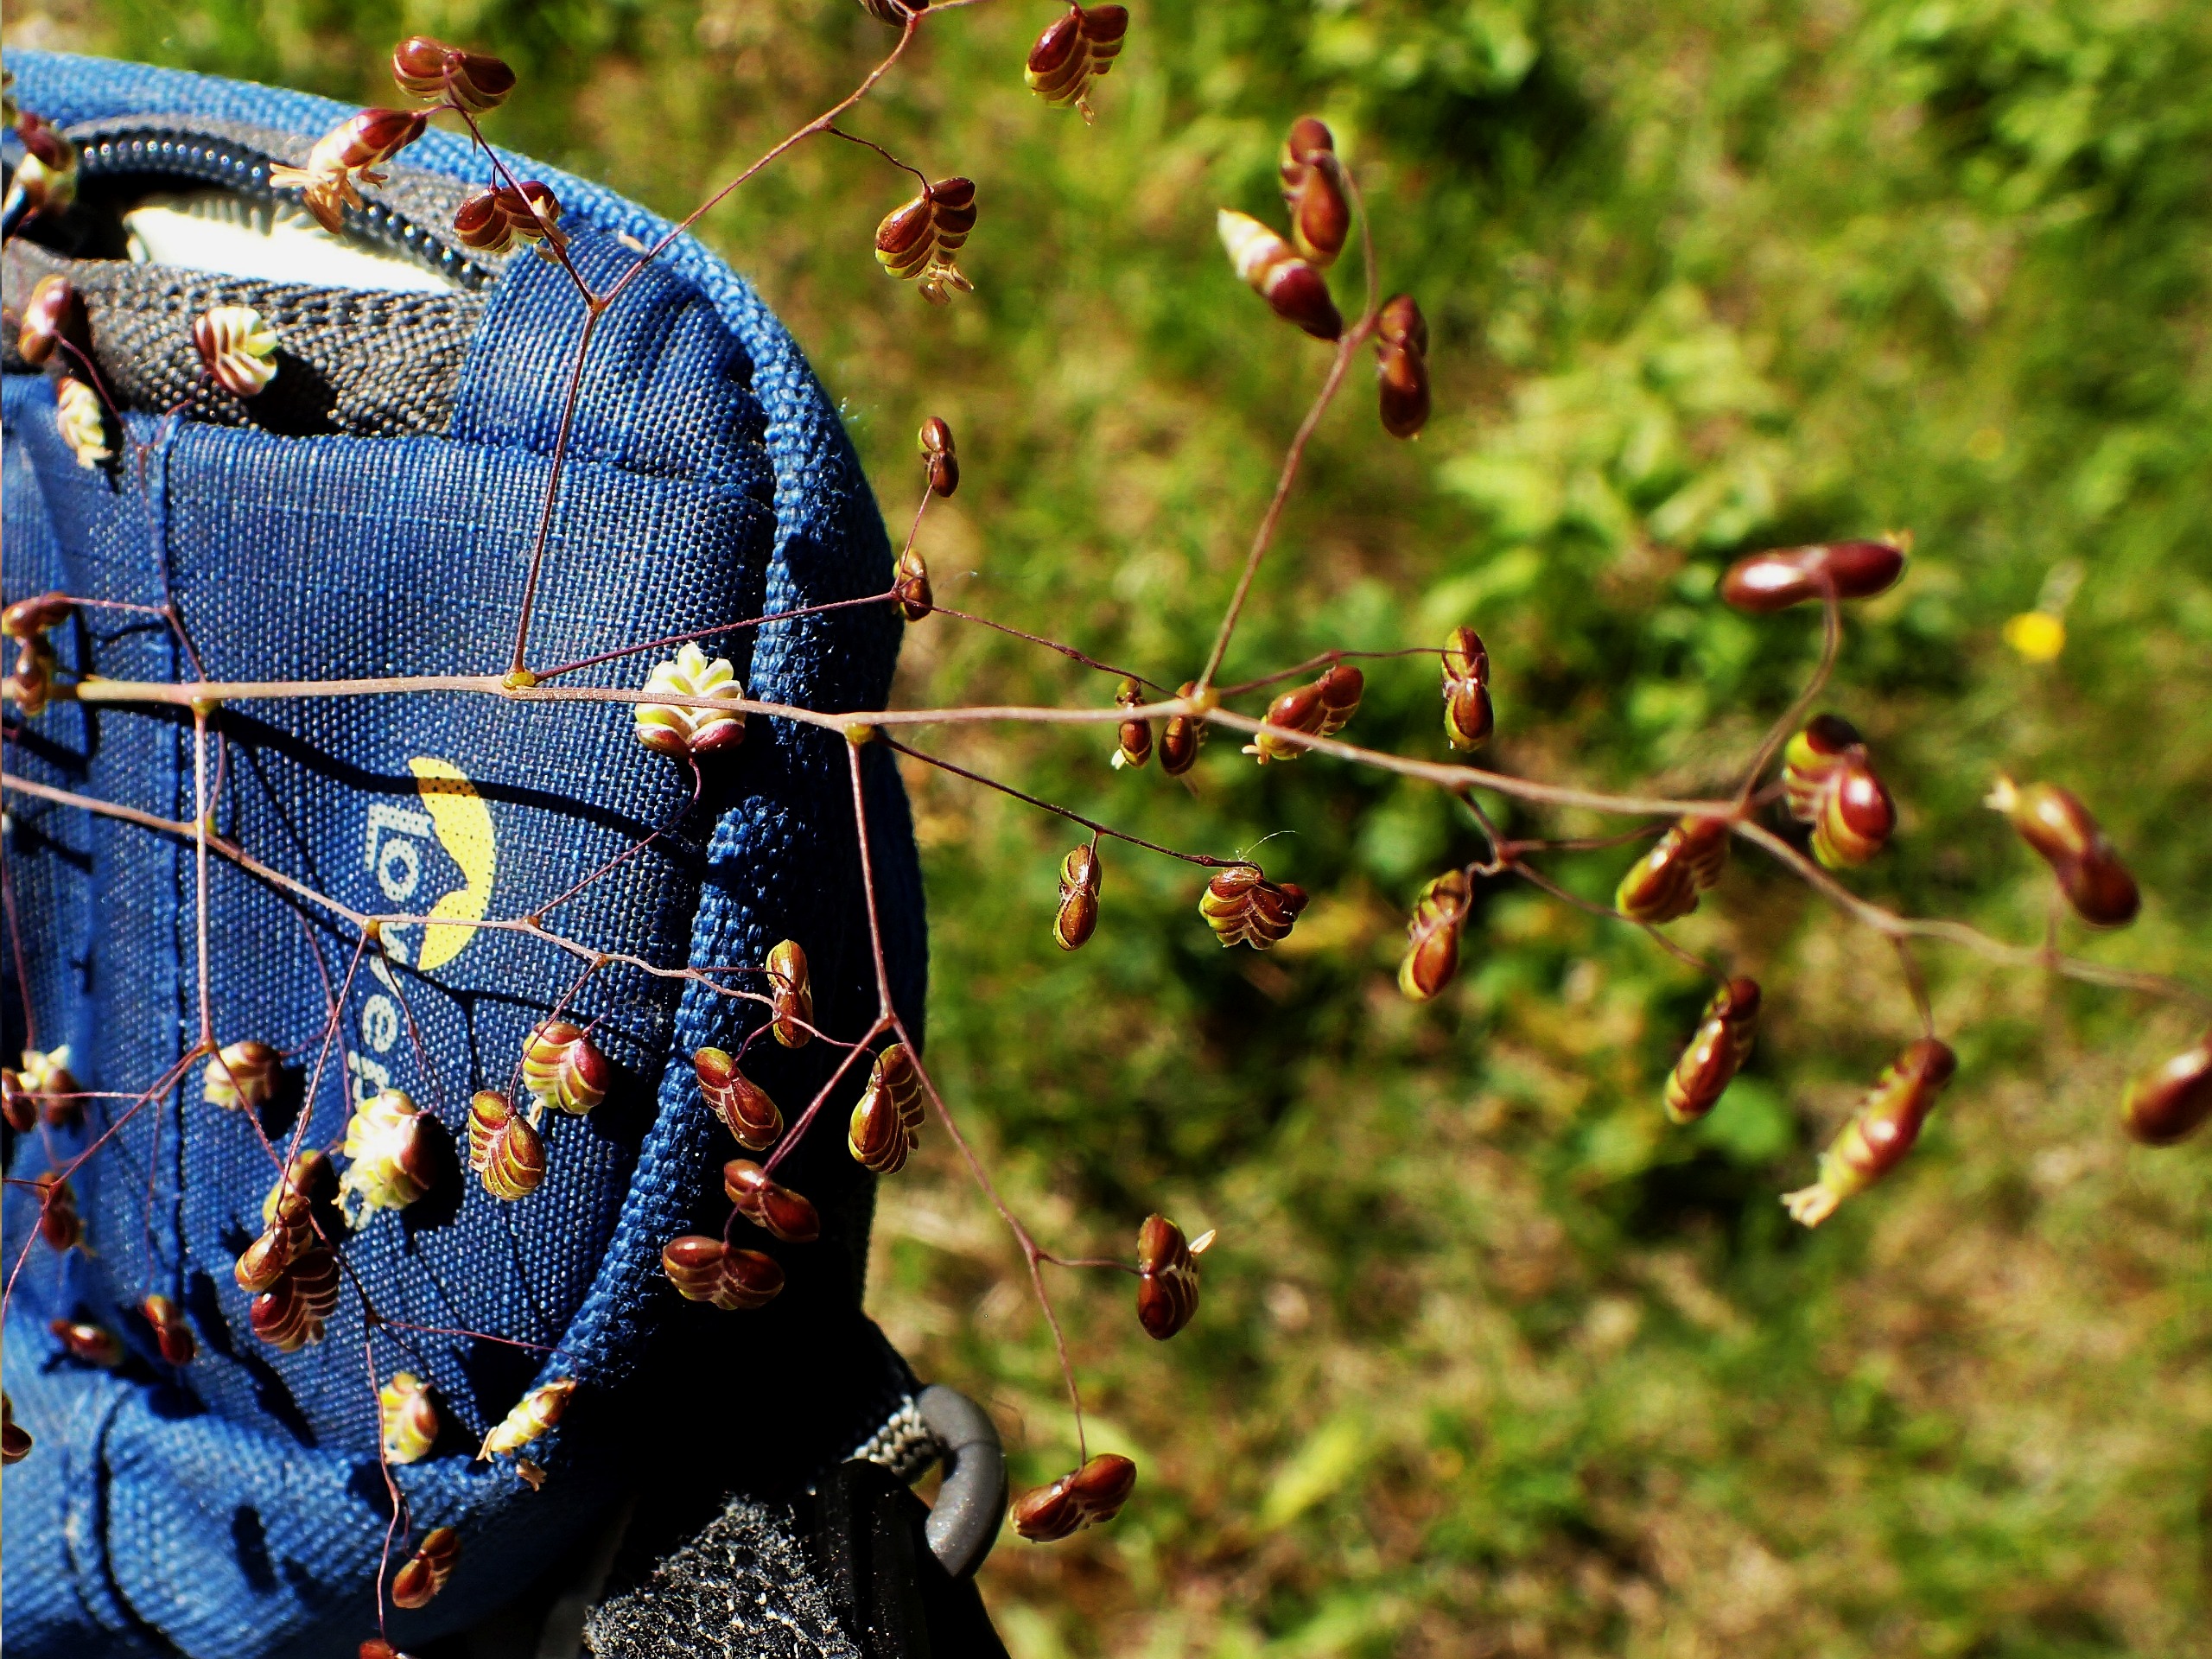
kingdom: Plantae
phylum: Tracheophyta
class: Liliopsida
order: Poales
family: Poaceae
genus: Briza
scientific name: Briza media
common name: Hjertegræs
